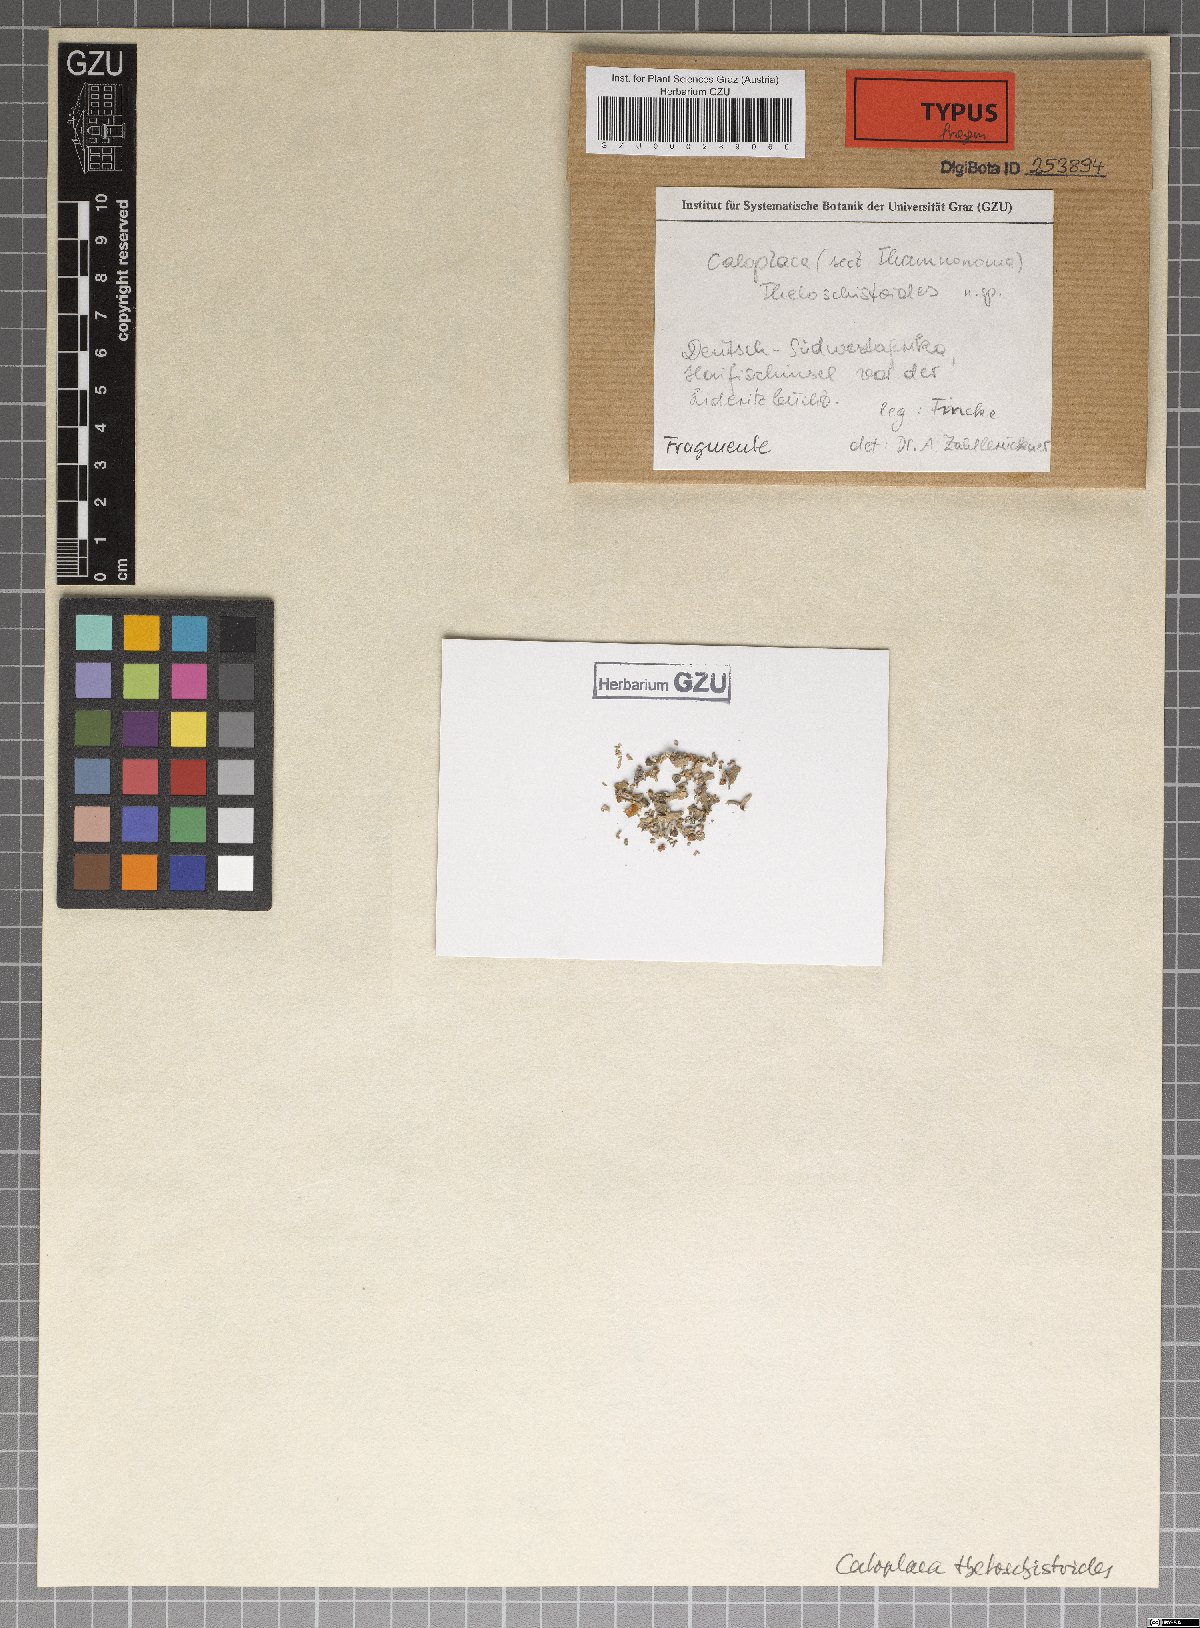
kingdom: Fungi
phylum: Ascomycota
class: Lecanoromycetes
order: Teloschistales
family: Teloschistaceae
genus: Polycauliona
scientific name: Polycauliona theloschistoides
